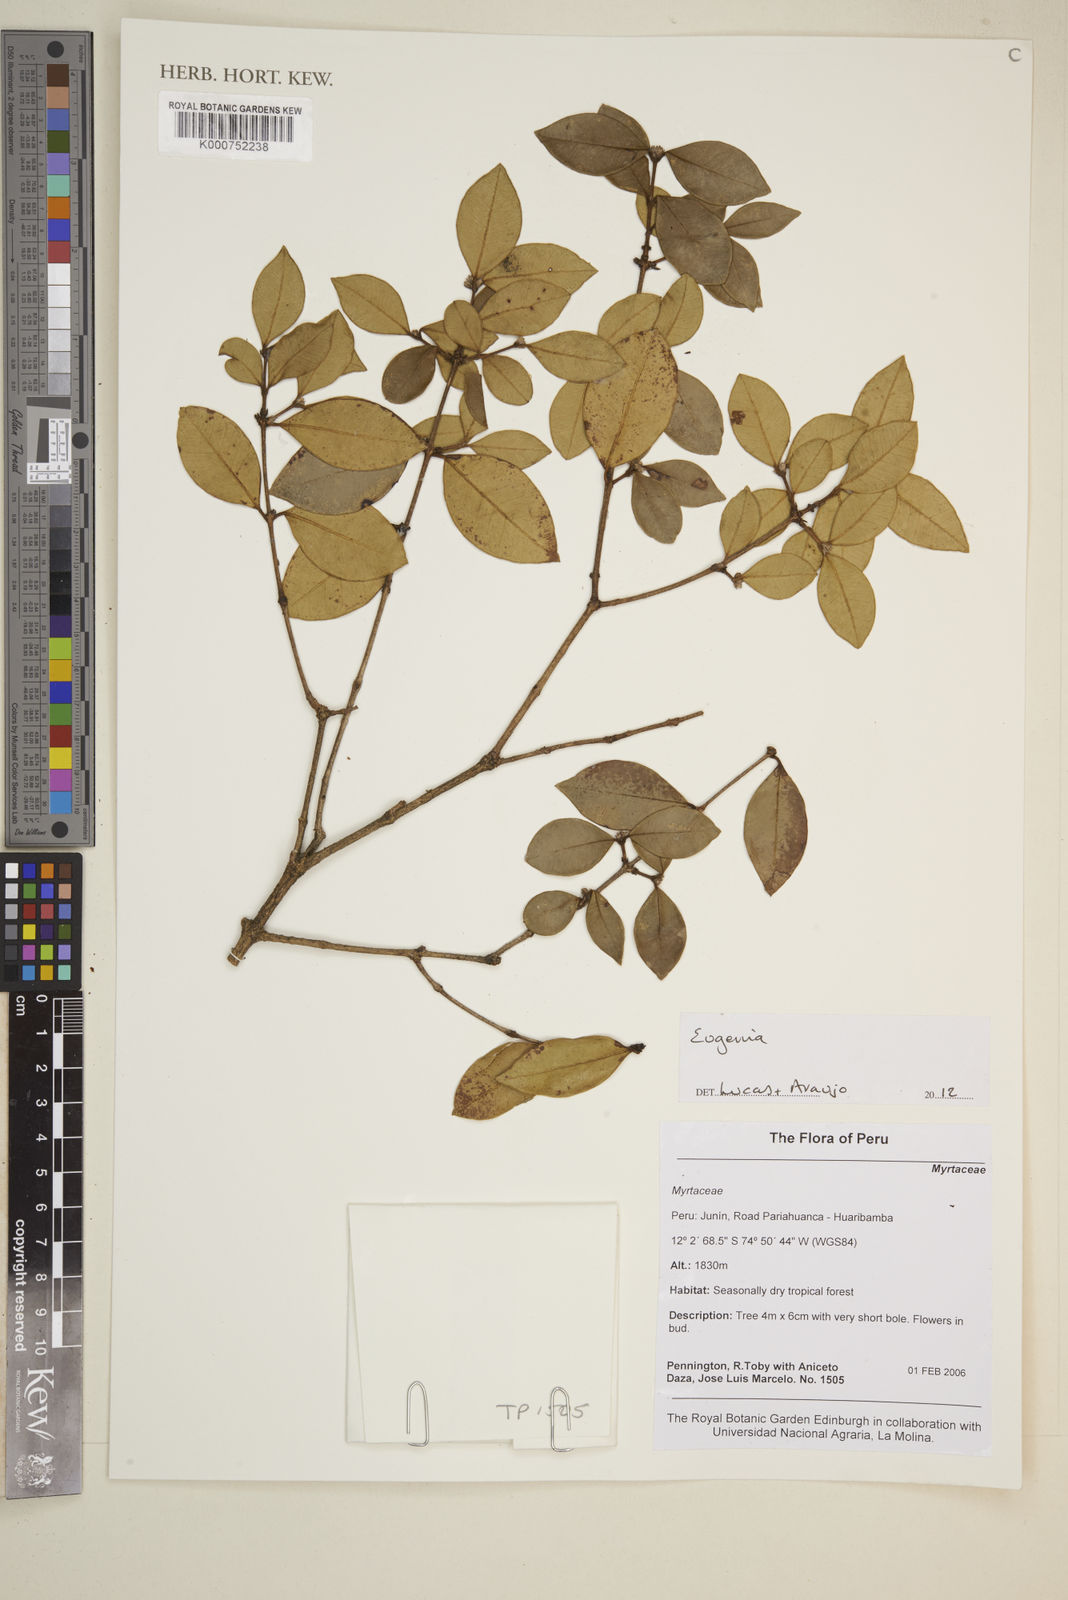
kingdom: Plantae
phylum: Tracheophyta
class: Magnoliopsida
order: Myrtales
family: Myrtaceae
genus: Eugenia
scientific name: Eugenia
